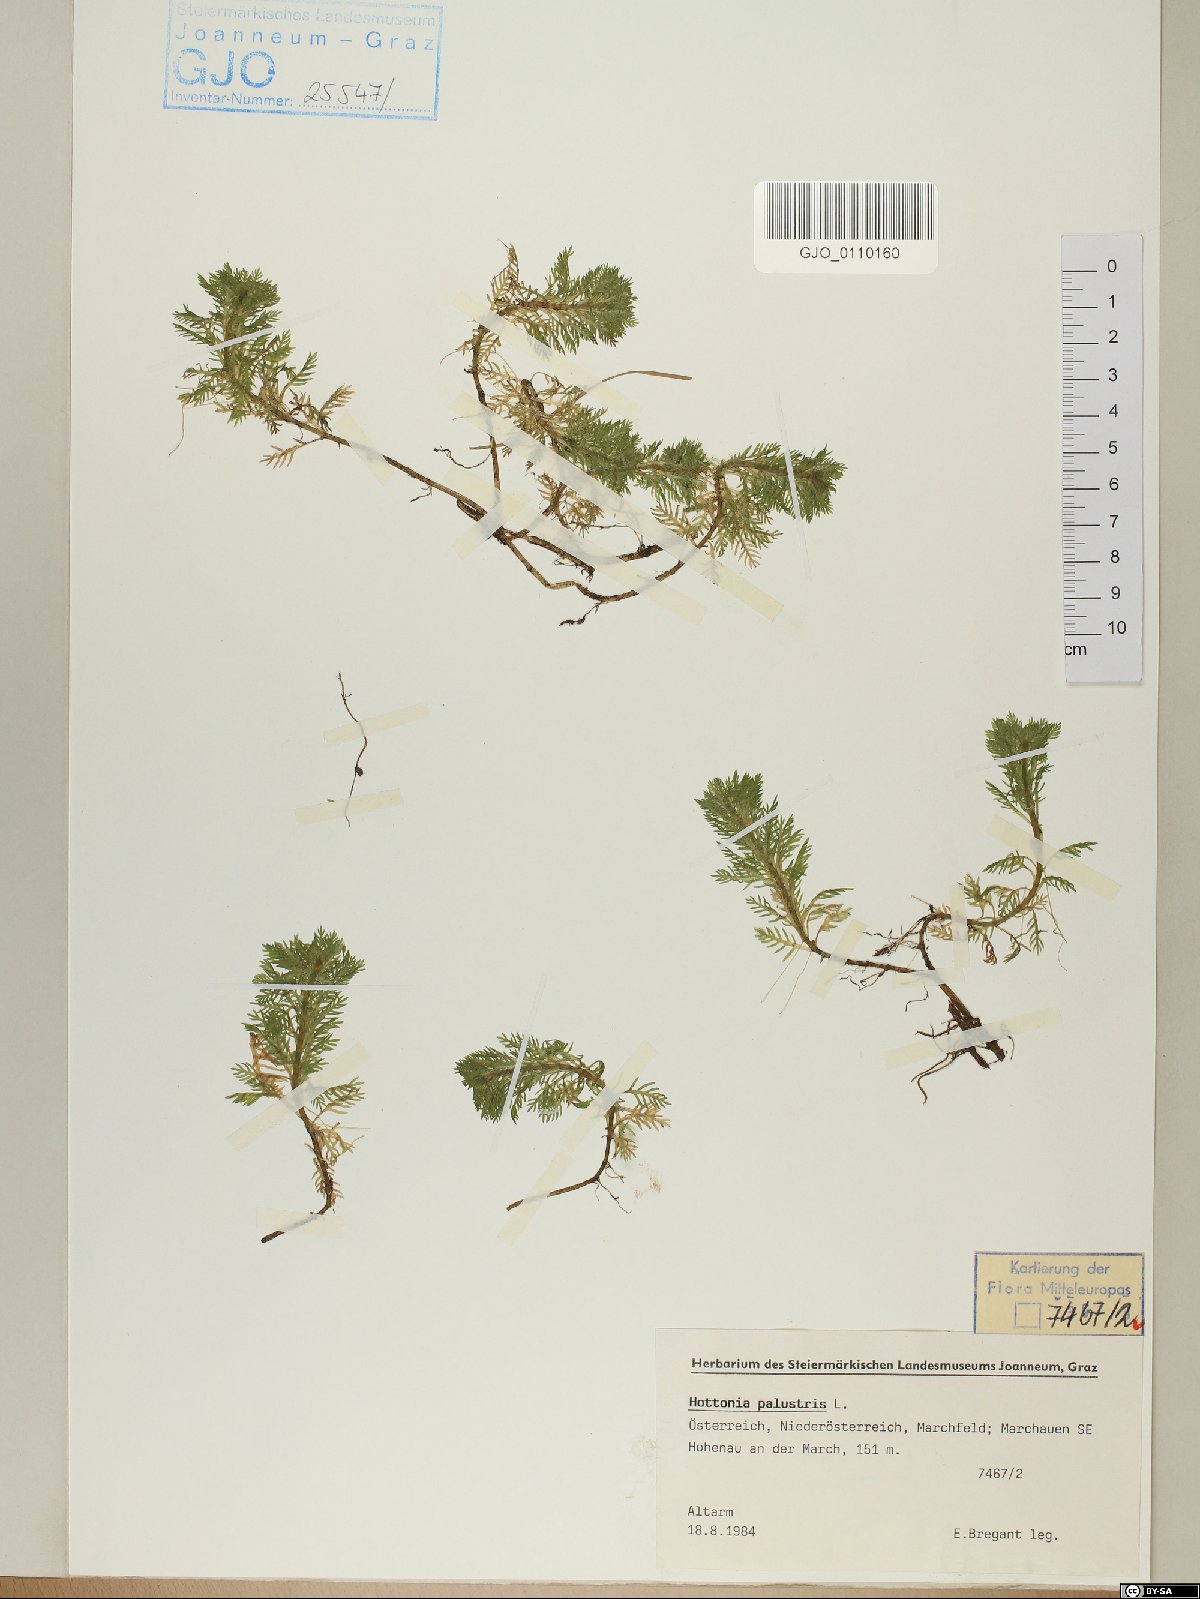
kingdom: Plantae
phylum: Tracheophyta
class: Magnoliopsida
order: Ericales
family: Primulaceae
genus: Hottonia
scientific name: Hottonia palustris
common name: Water-violet
